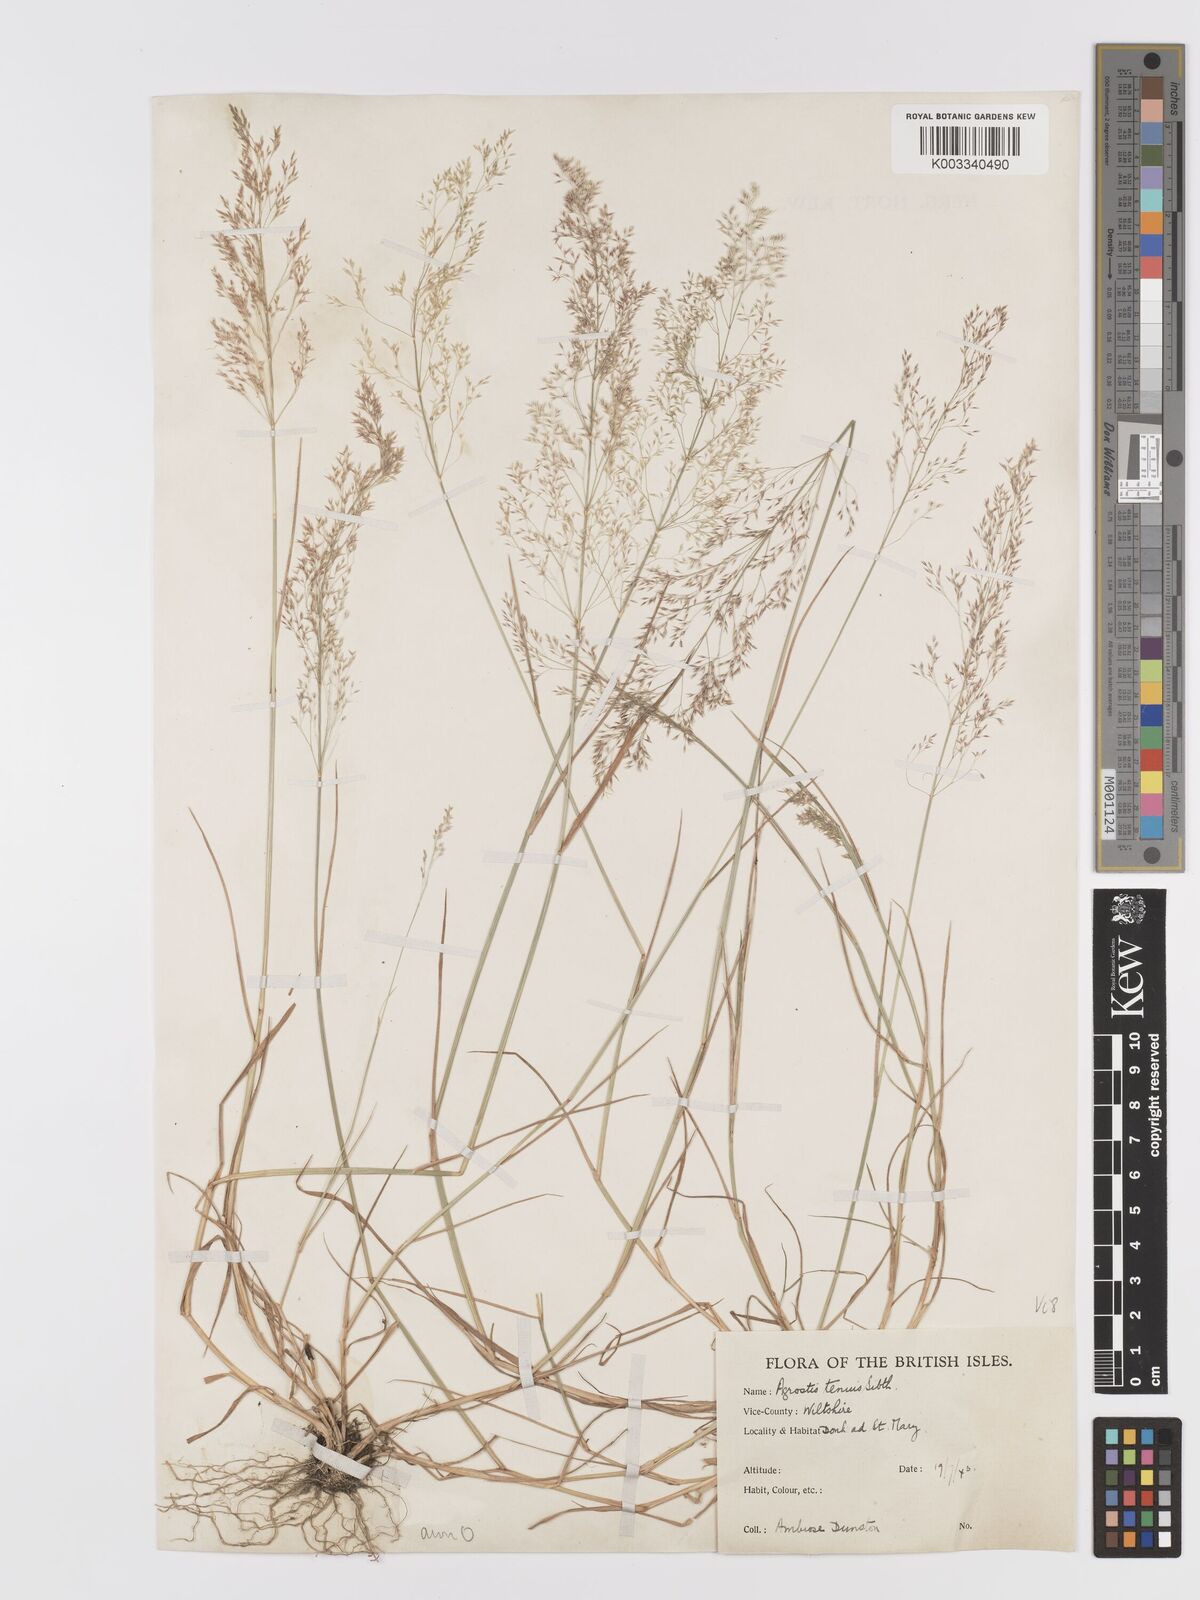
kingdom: Plantae
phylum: Tracheophyta
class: Liliopsida
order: Poales
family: Poaceae
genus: Agrostis
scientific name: Agrostis
